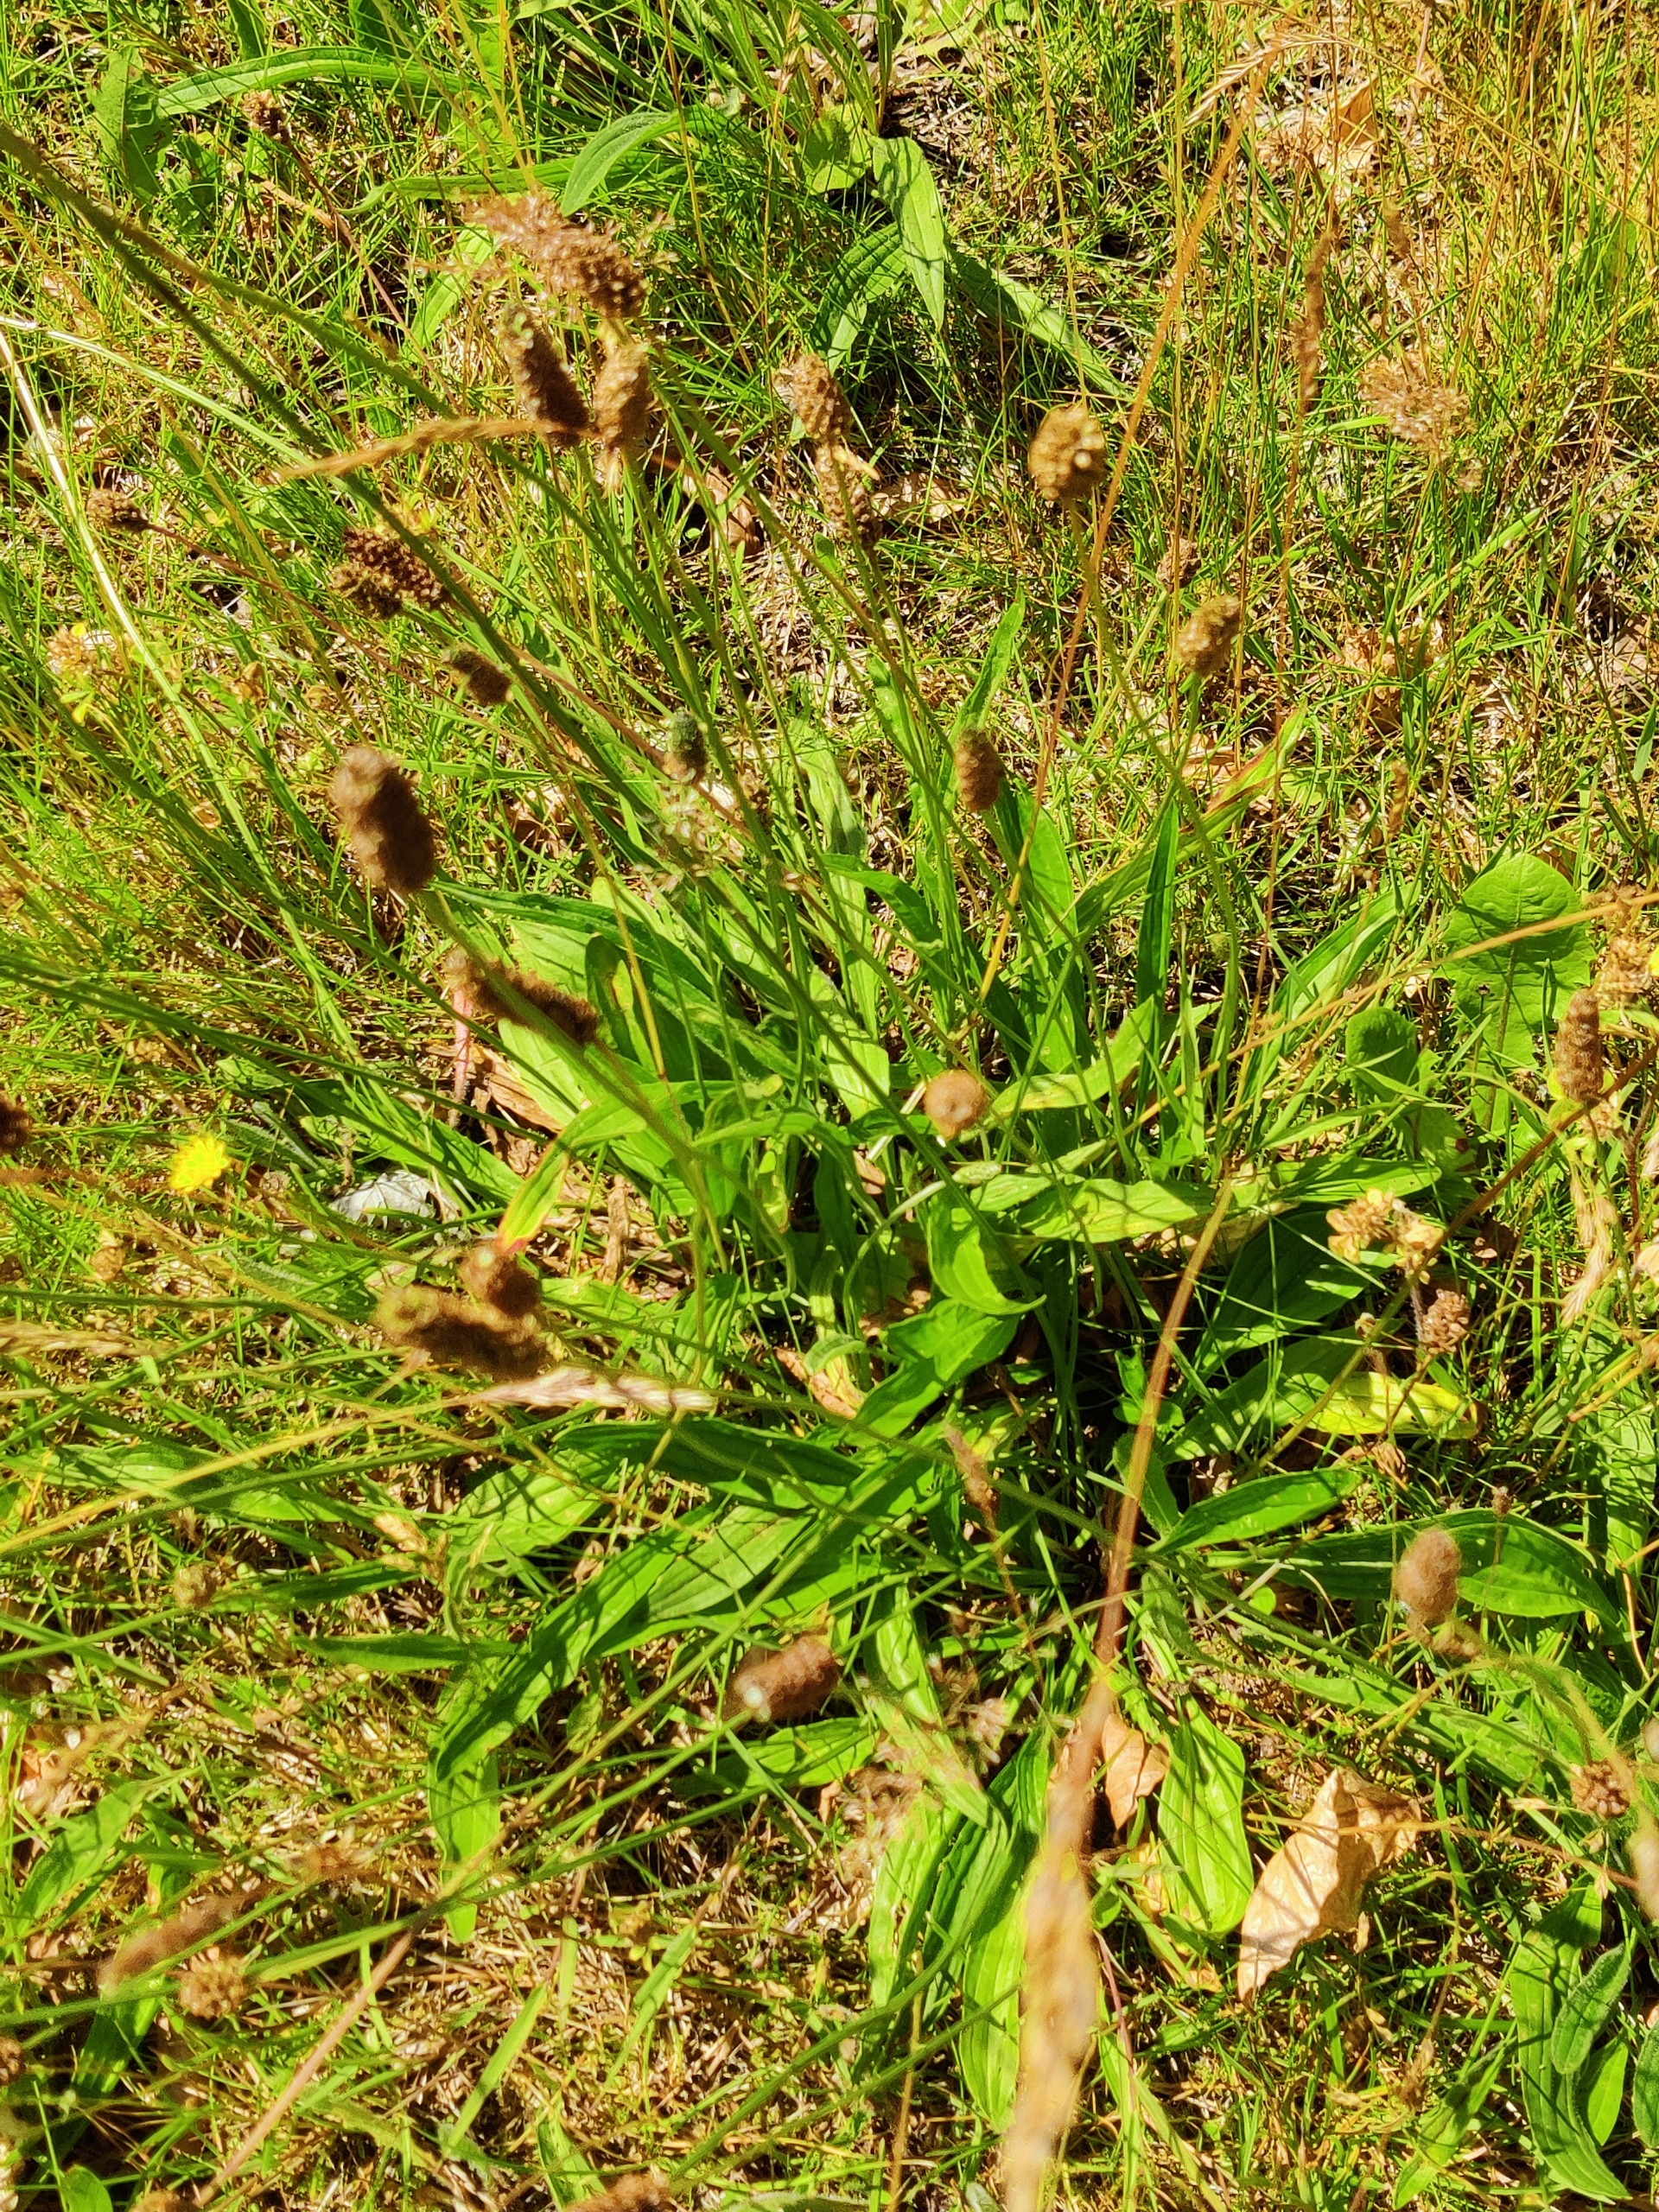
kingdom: Plantae
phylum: Tracheophyta
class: Magnoliopsida
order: Lamiales
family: Plantaginaceae
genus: Plantago
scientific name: Plantago lanceolata
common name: Lancet-vejbred
